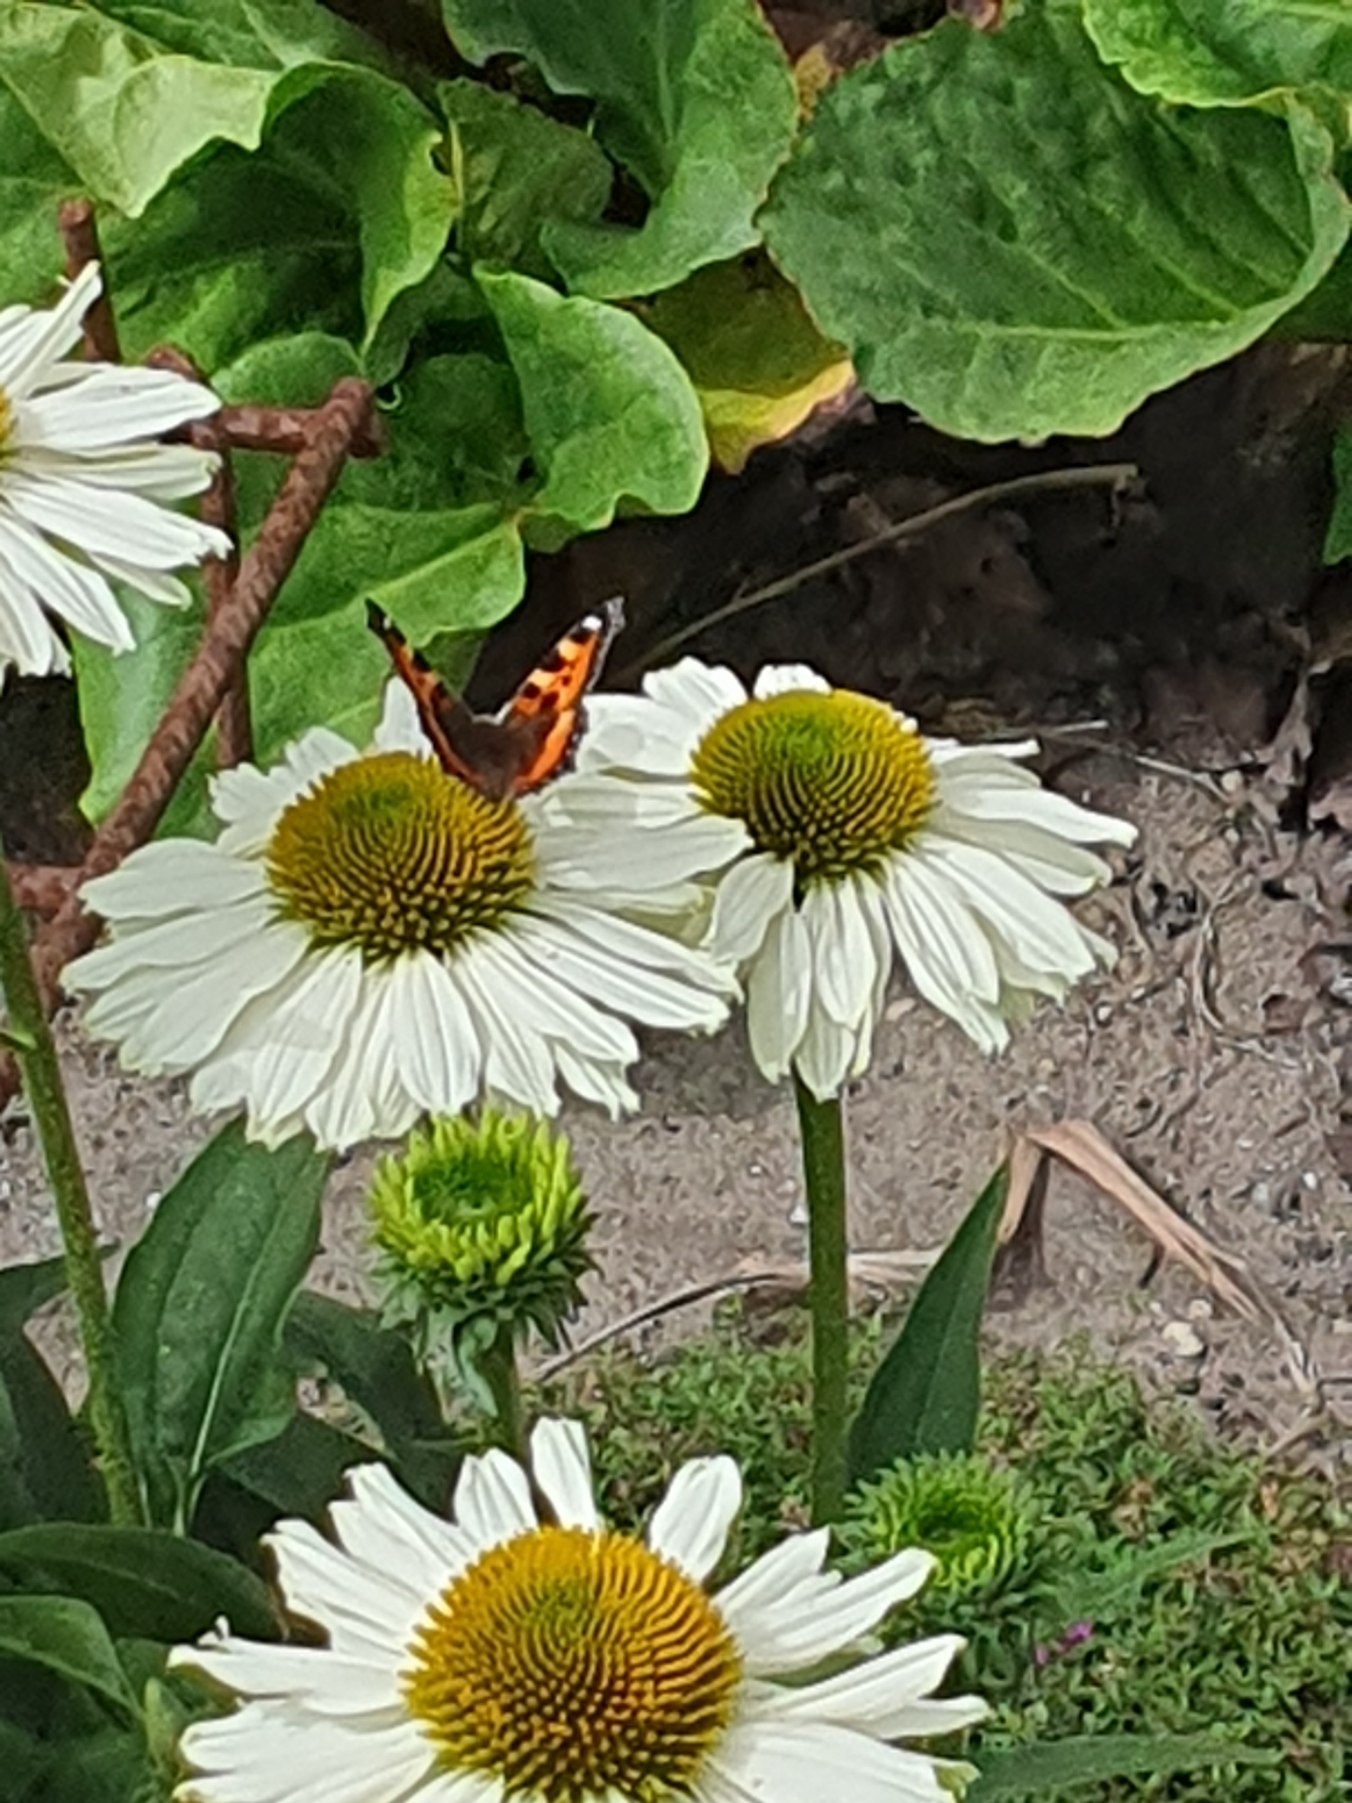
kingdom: Animalia
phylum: Arthropoda
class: Insecta
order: Lepidoptera
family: Nymphalidae
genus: Aglais
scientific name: Aglais urticae
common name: Nældens takvinge
